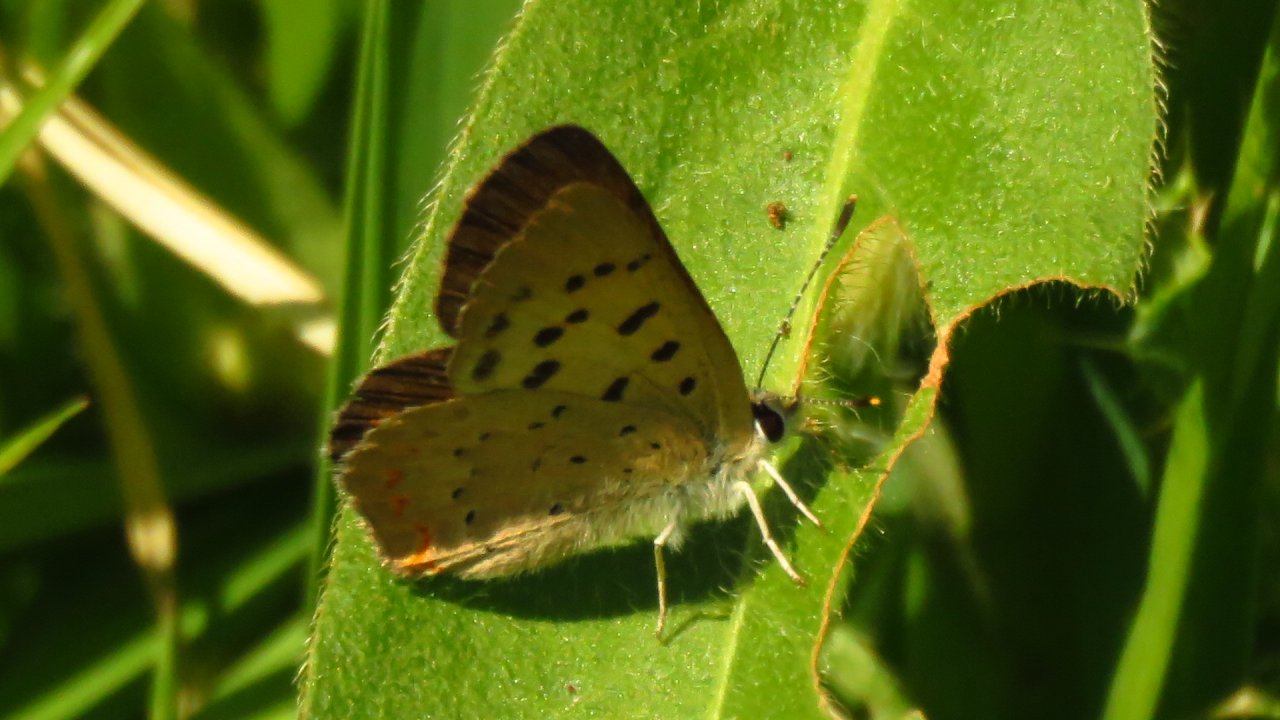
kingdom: Animalia
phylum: Arthropoda
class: Insecta
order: Lepidoptera
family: Lycaenidae
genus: Lycaena
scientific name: Lycaena cupreus
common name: Lustrous Copper
